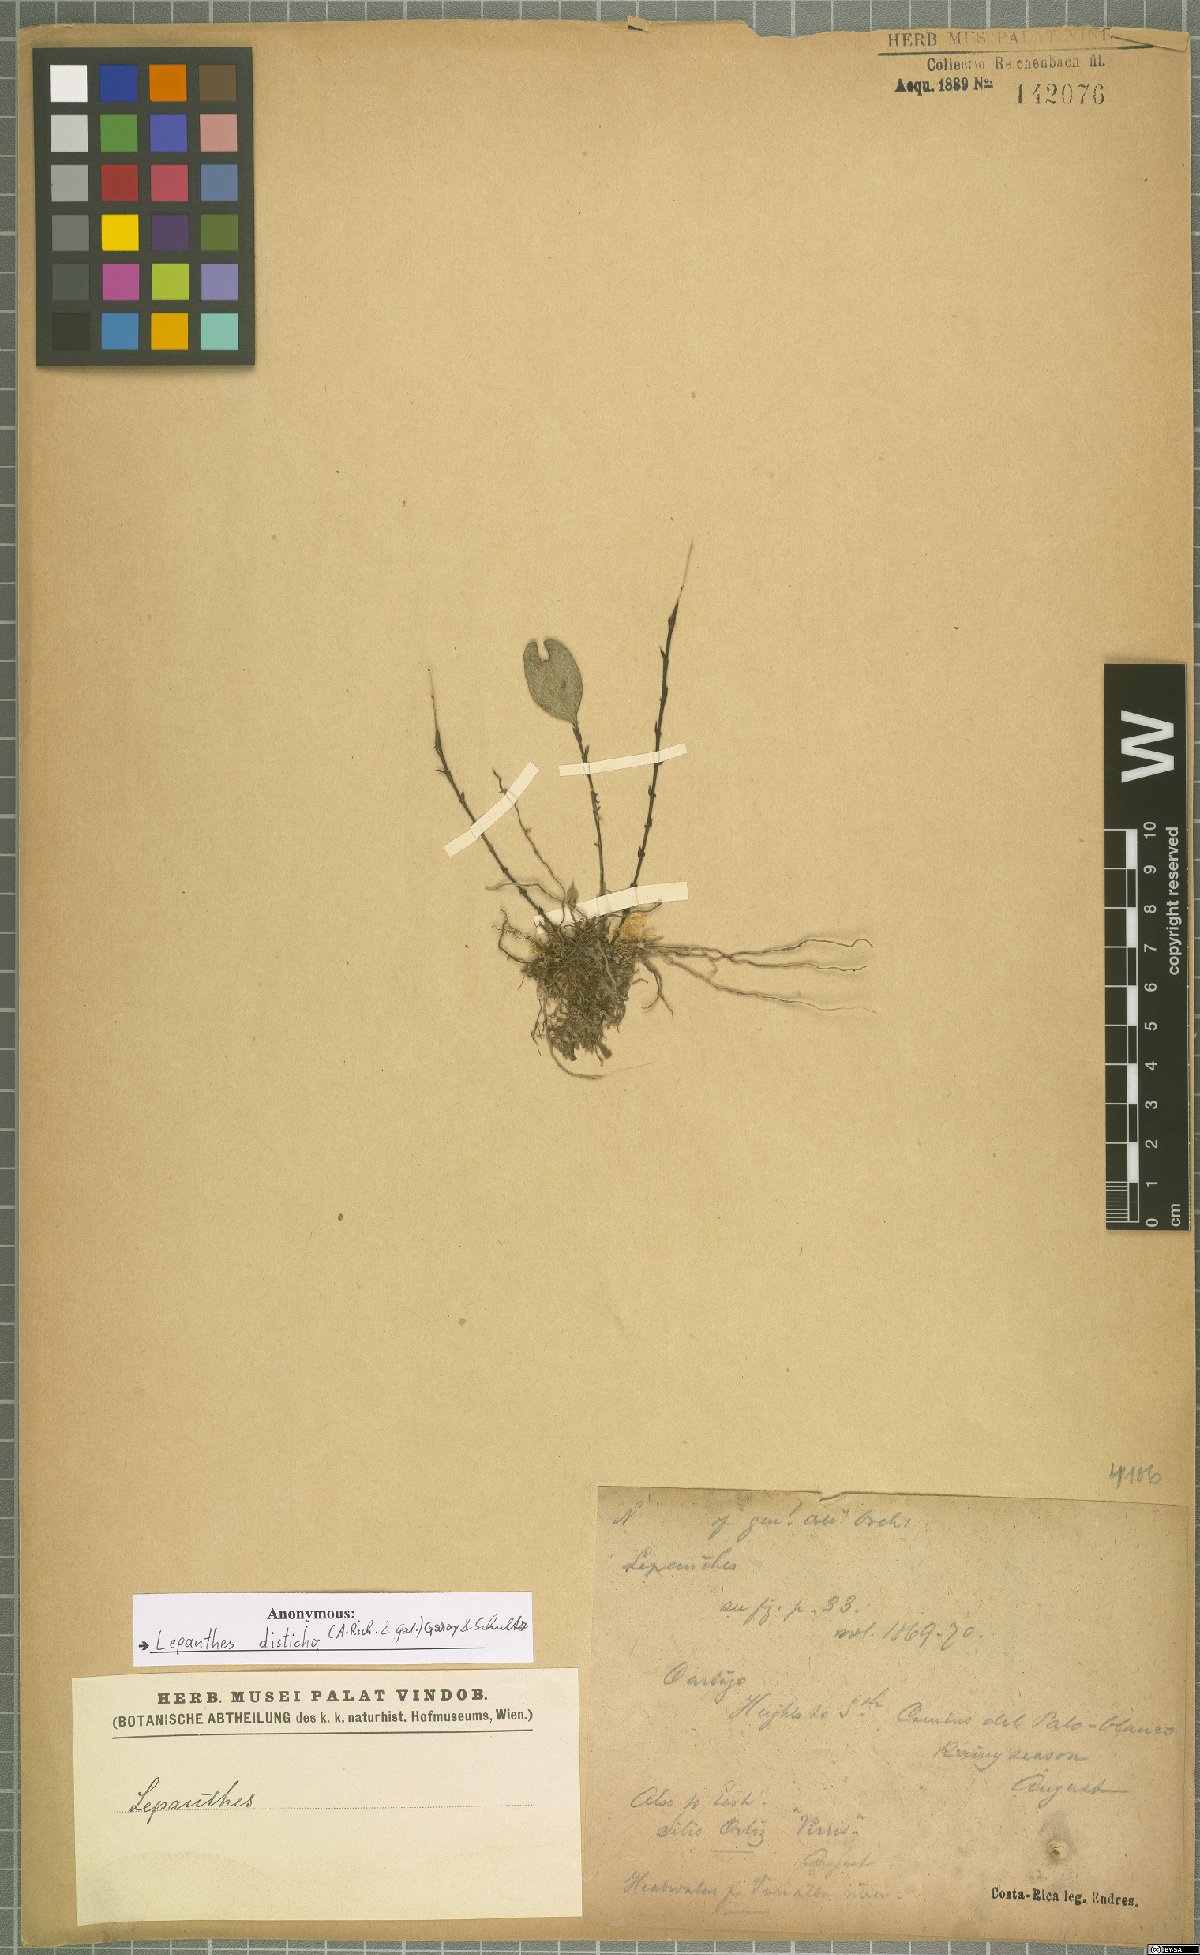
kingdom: Plantae
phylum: Tracheophyta
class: Liliopsida
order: Asparagales
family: Orchidaceae
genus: Lepanthes
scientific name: Lepanthes disticha
